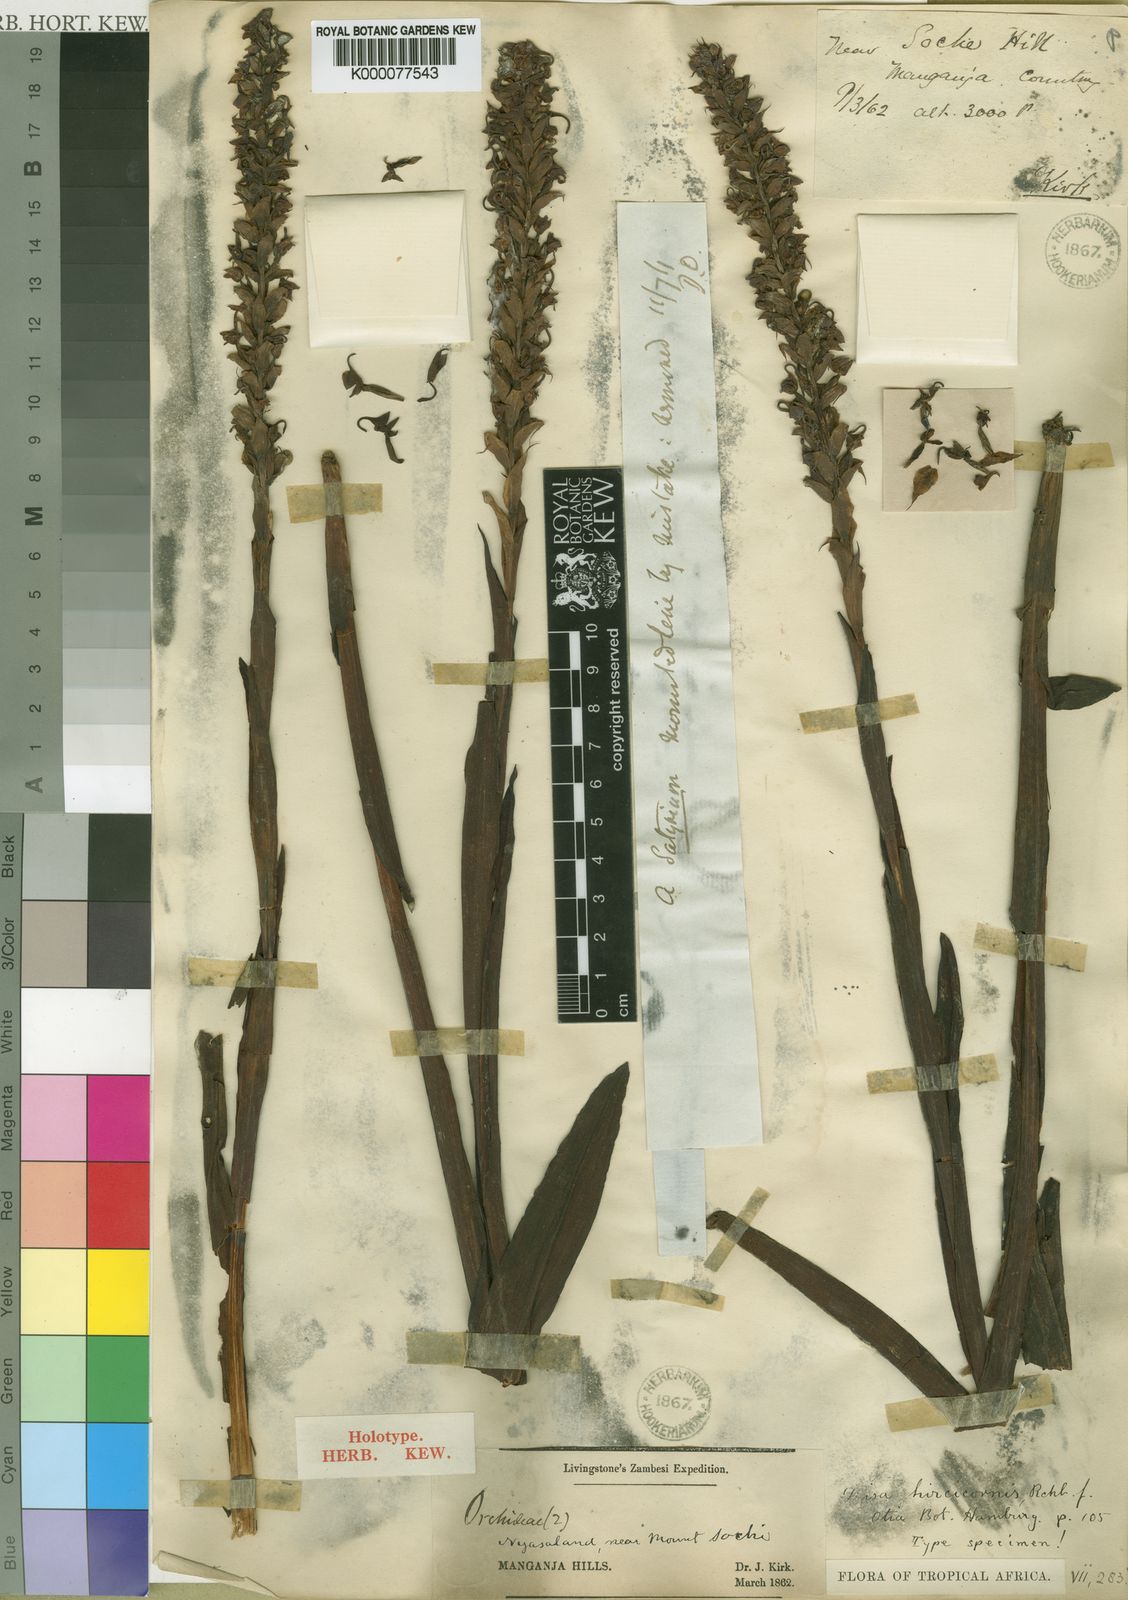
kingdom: Plantae
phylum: Tracheophyta
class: Liliopsida
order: Asparagales
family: Orchidaceae
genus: Disa
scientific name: Disa hircicornis
